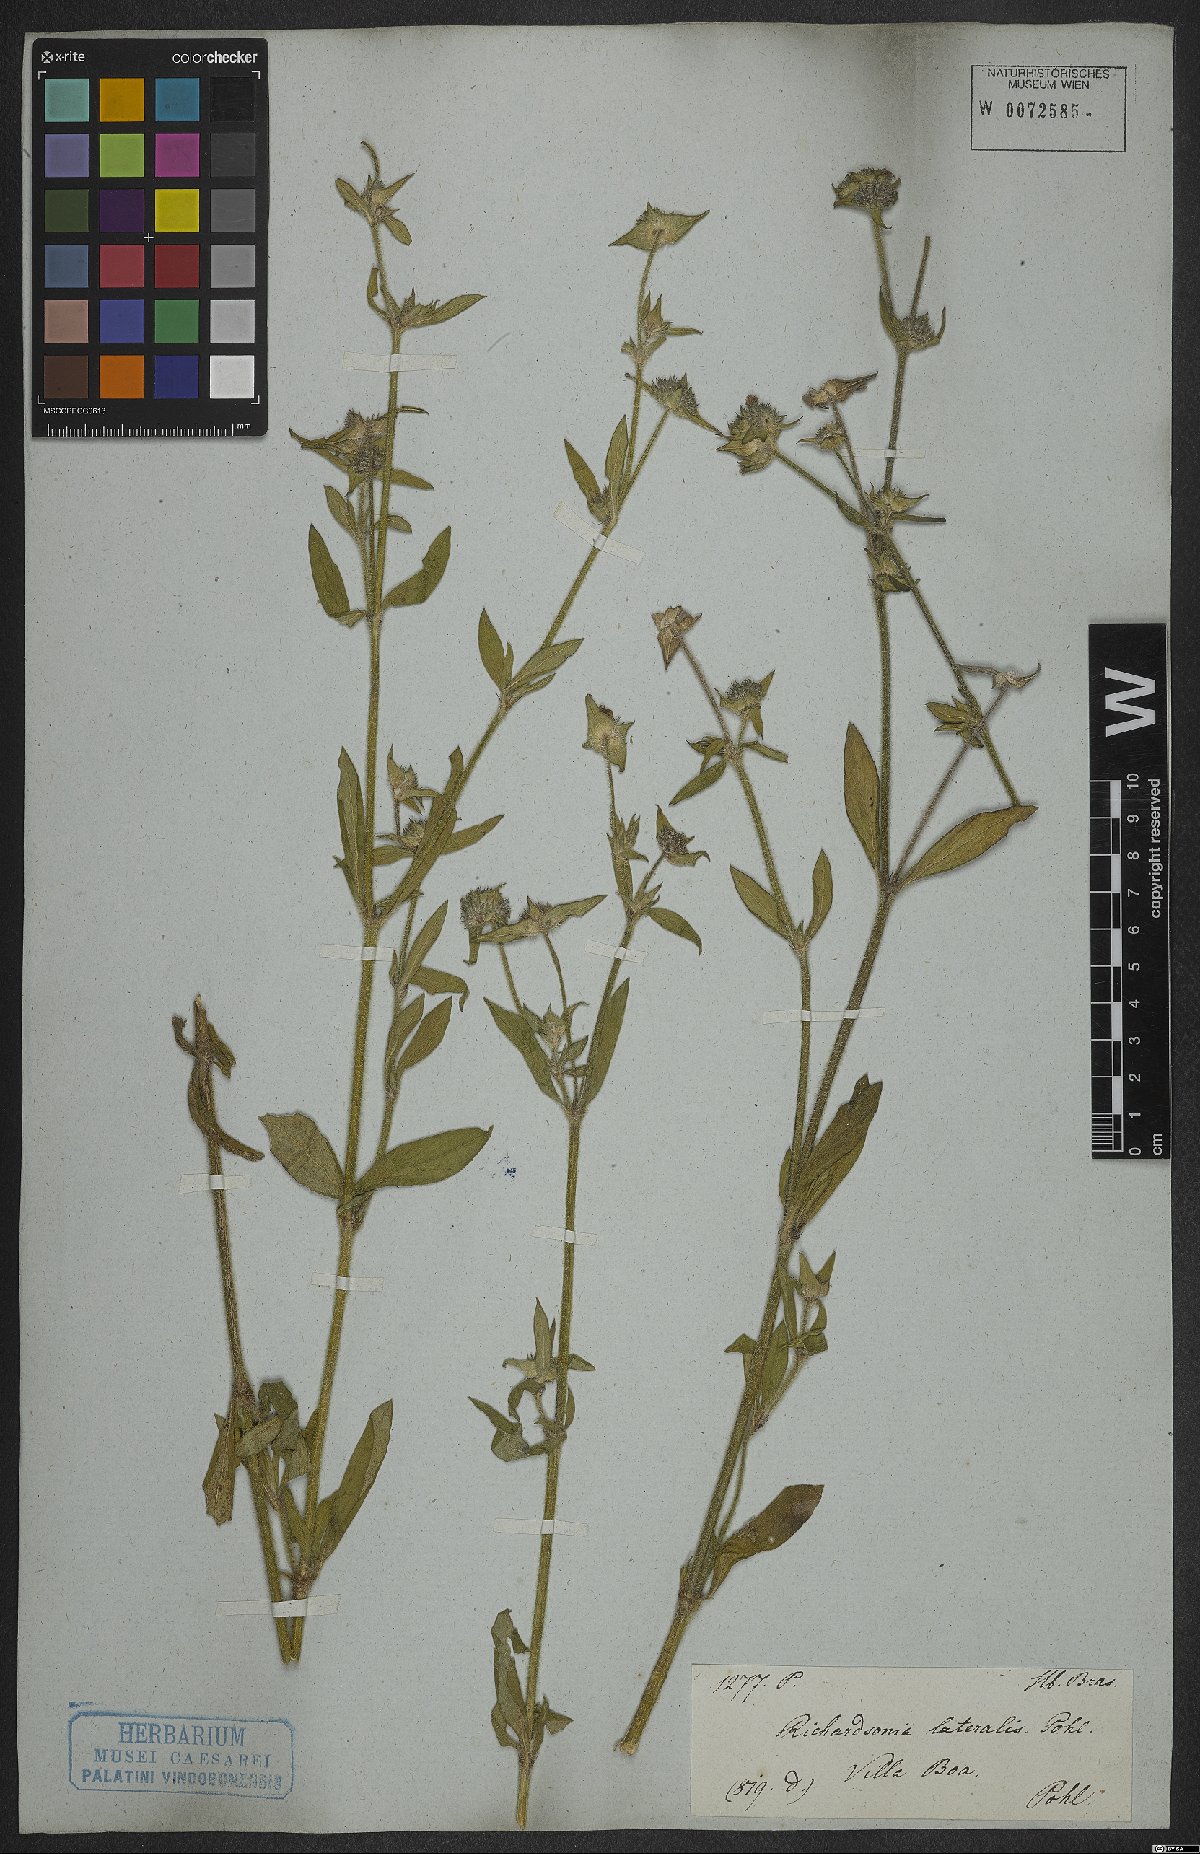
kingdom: Plantae
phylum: Tracheophyta
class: Magnoliopsida
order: Gentianales
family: Rubiaceae
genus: Richardia
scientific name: Richardia grandiflora
